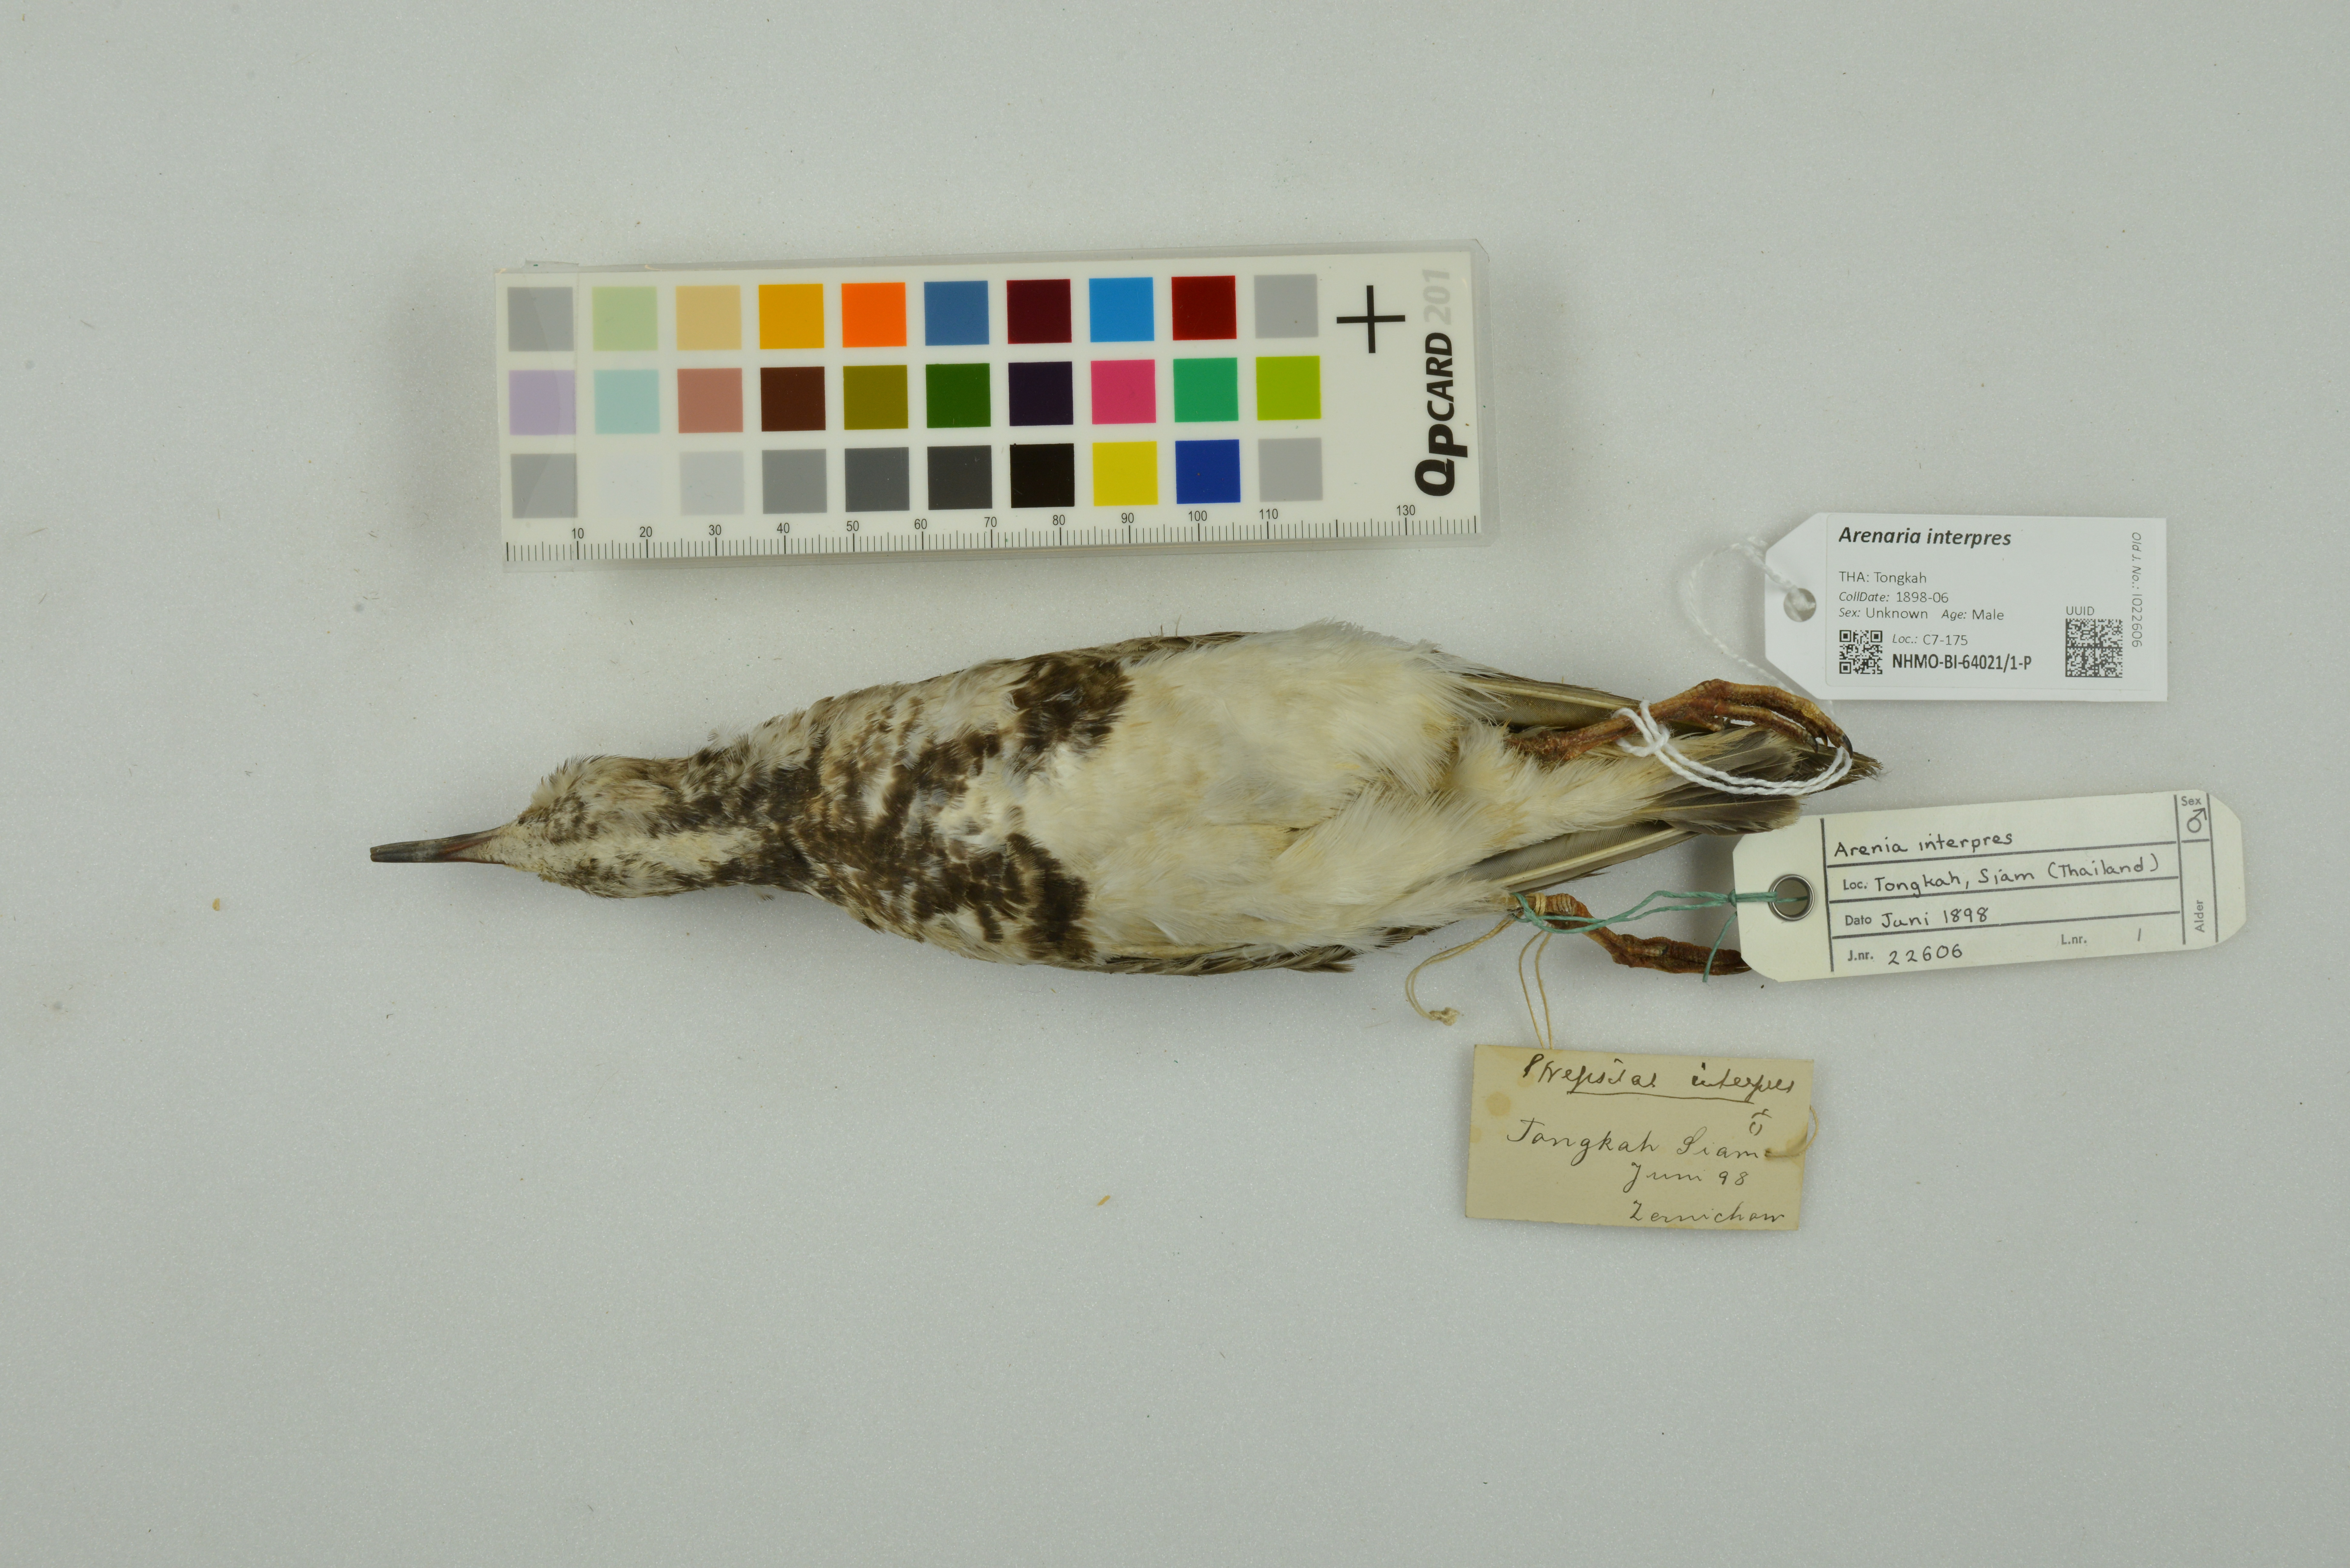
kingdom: Animalia
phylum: Chordata
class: Aves
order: Charadriiformes
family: Scolopacidae
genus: Arenaria
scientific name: Arenaria interpres
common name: Ruddy turnstone
